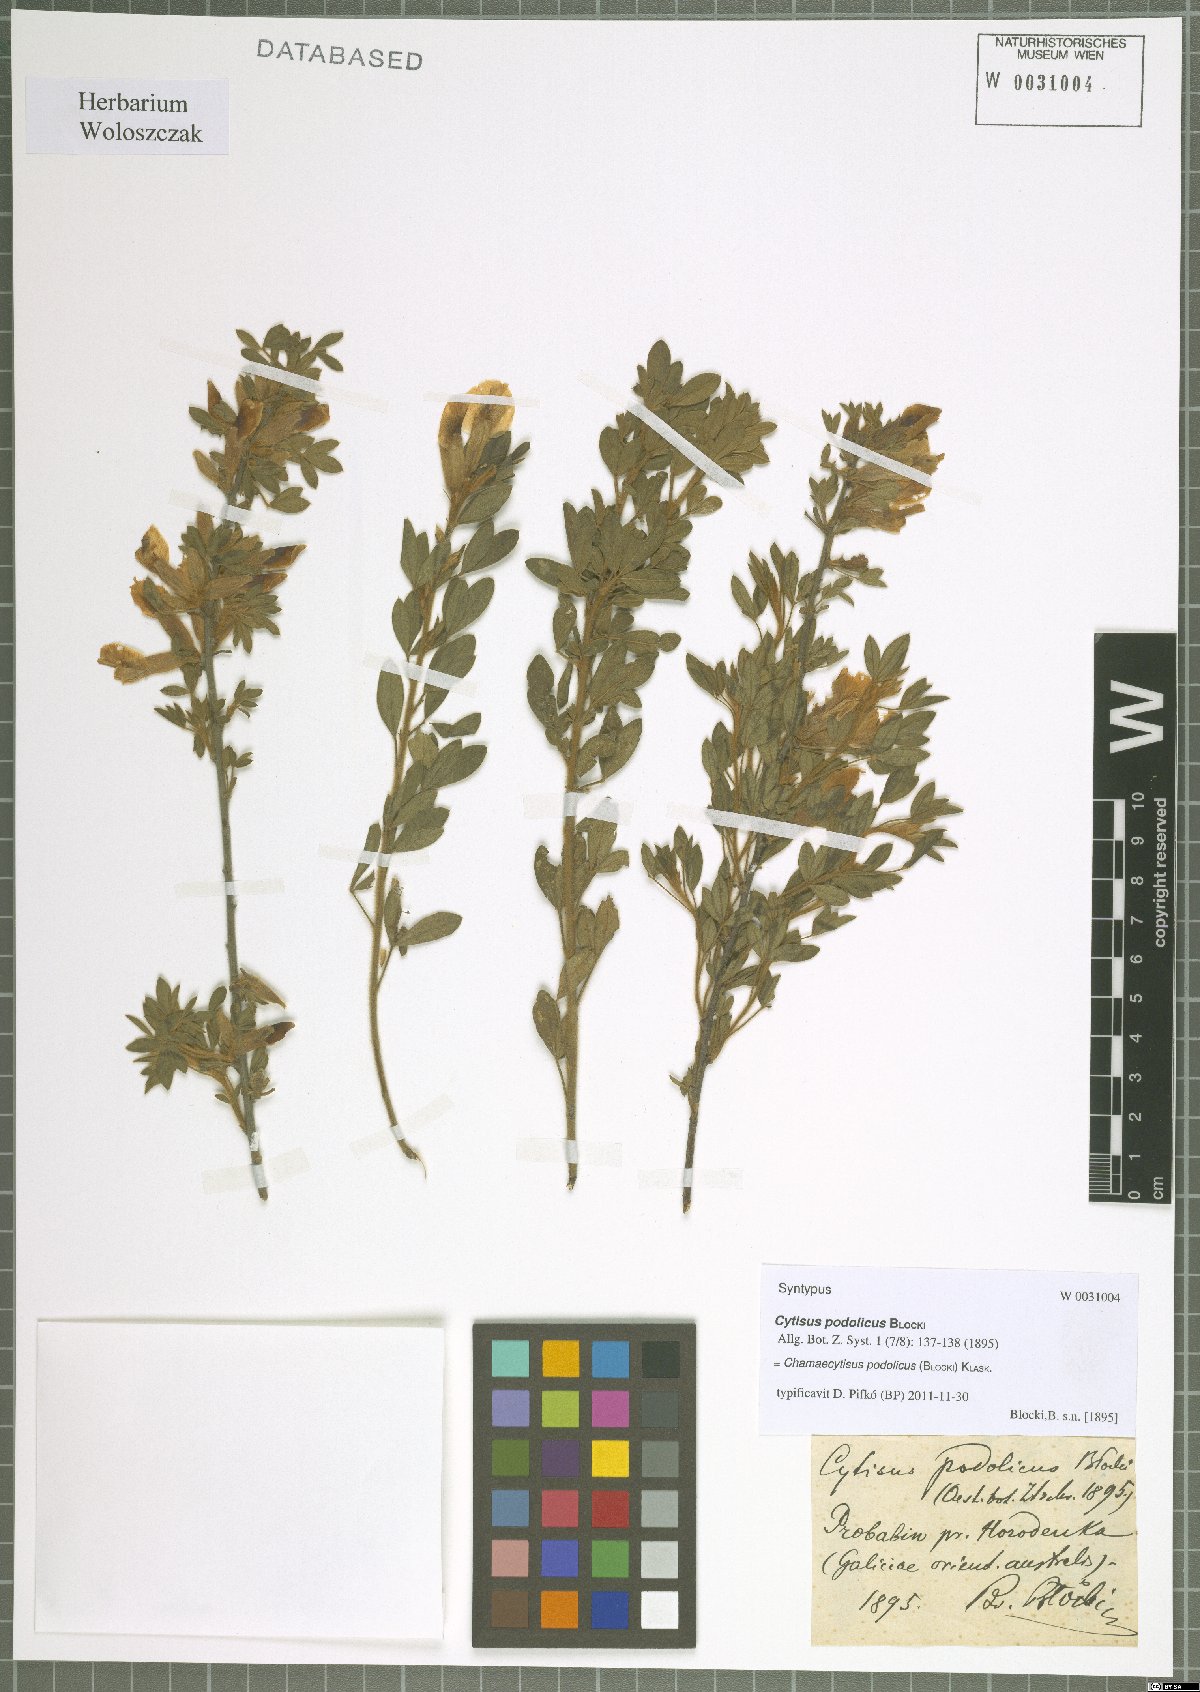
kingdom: Plantae
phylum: Tracheophyta
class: Magnoliopsida
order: Fabales
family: Fabaceae
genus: Chamaecytisus
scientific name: Chamaecytisus podolicus
